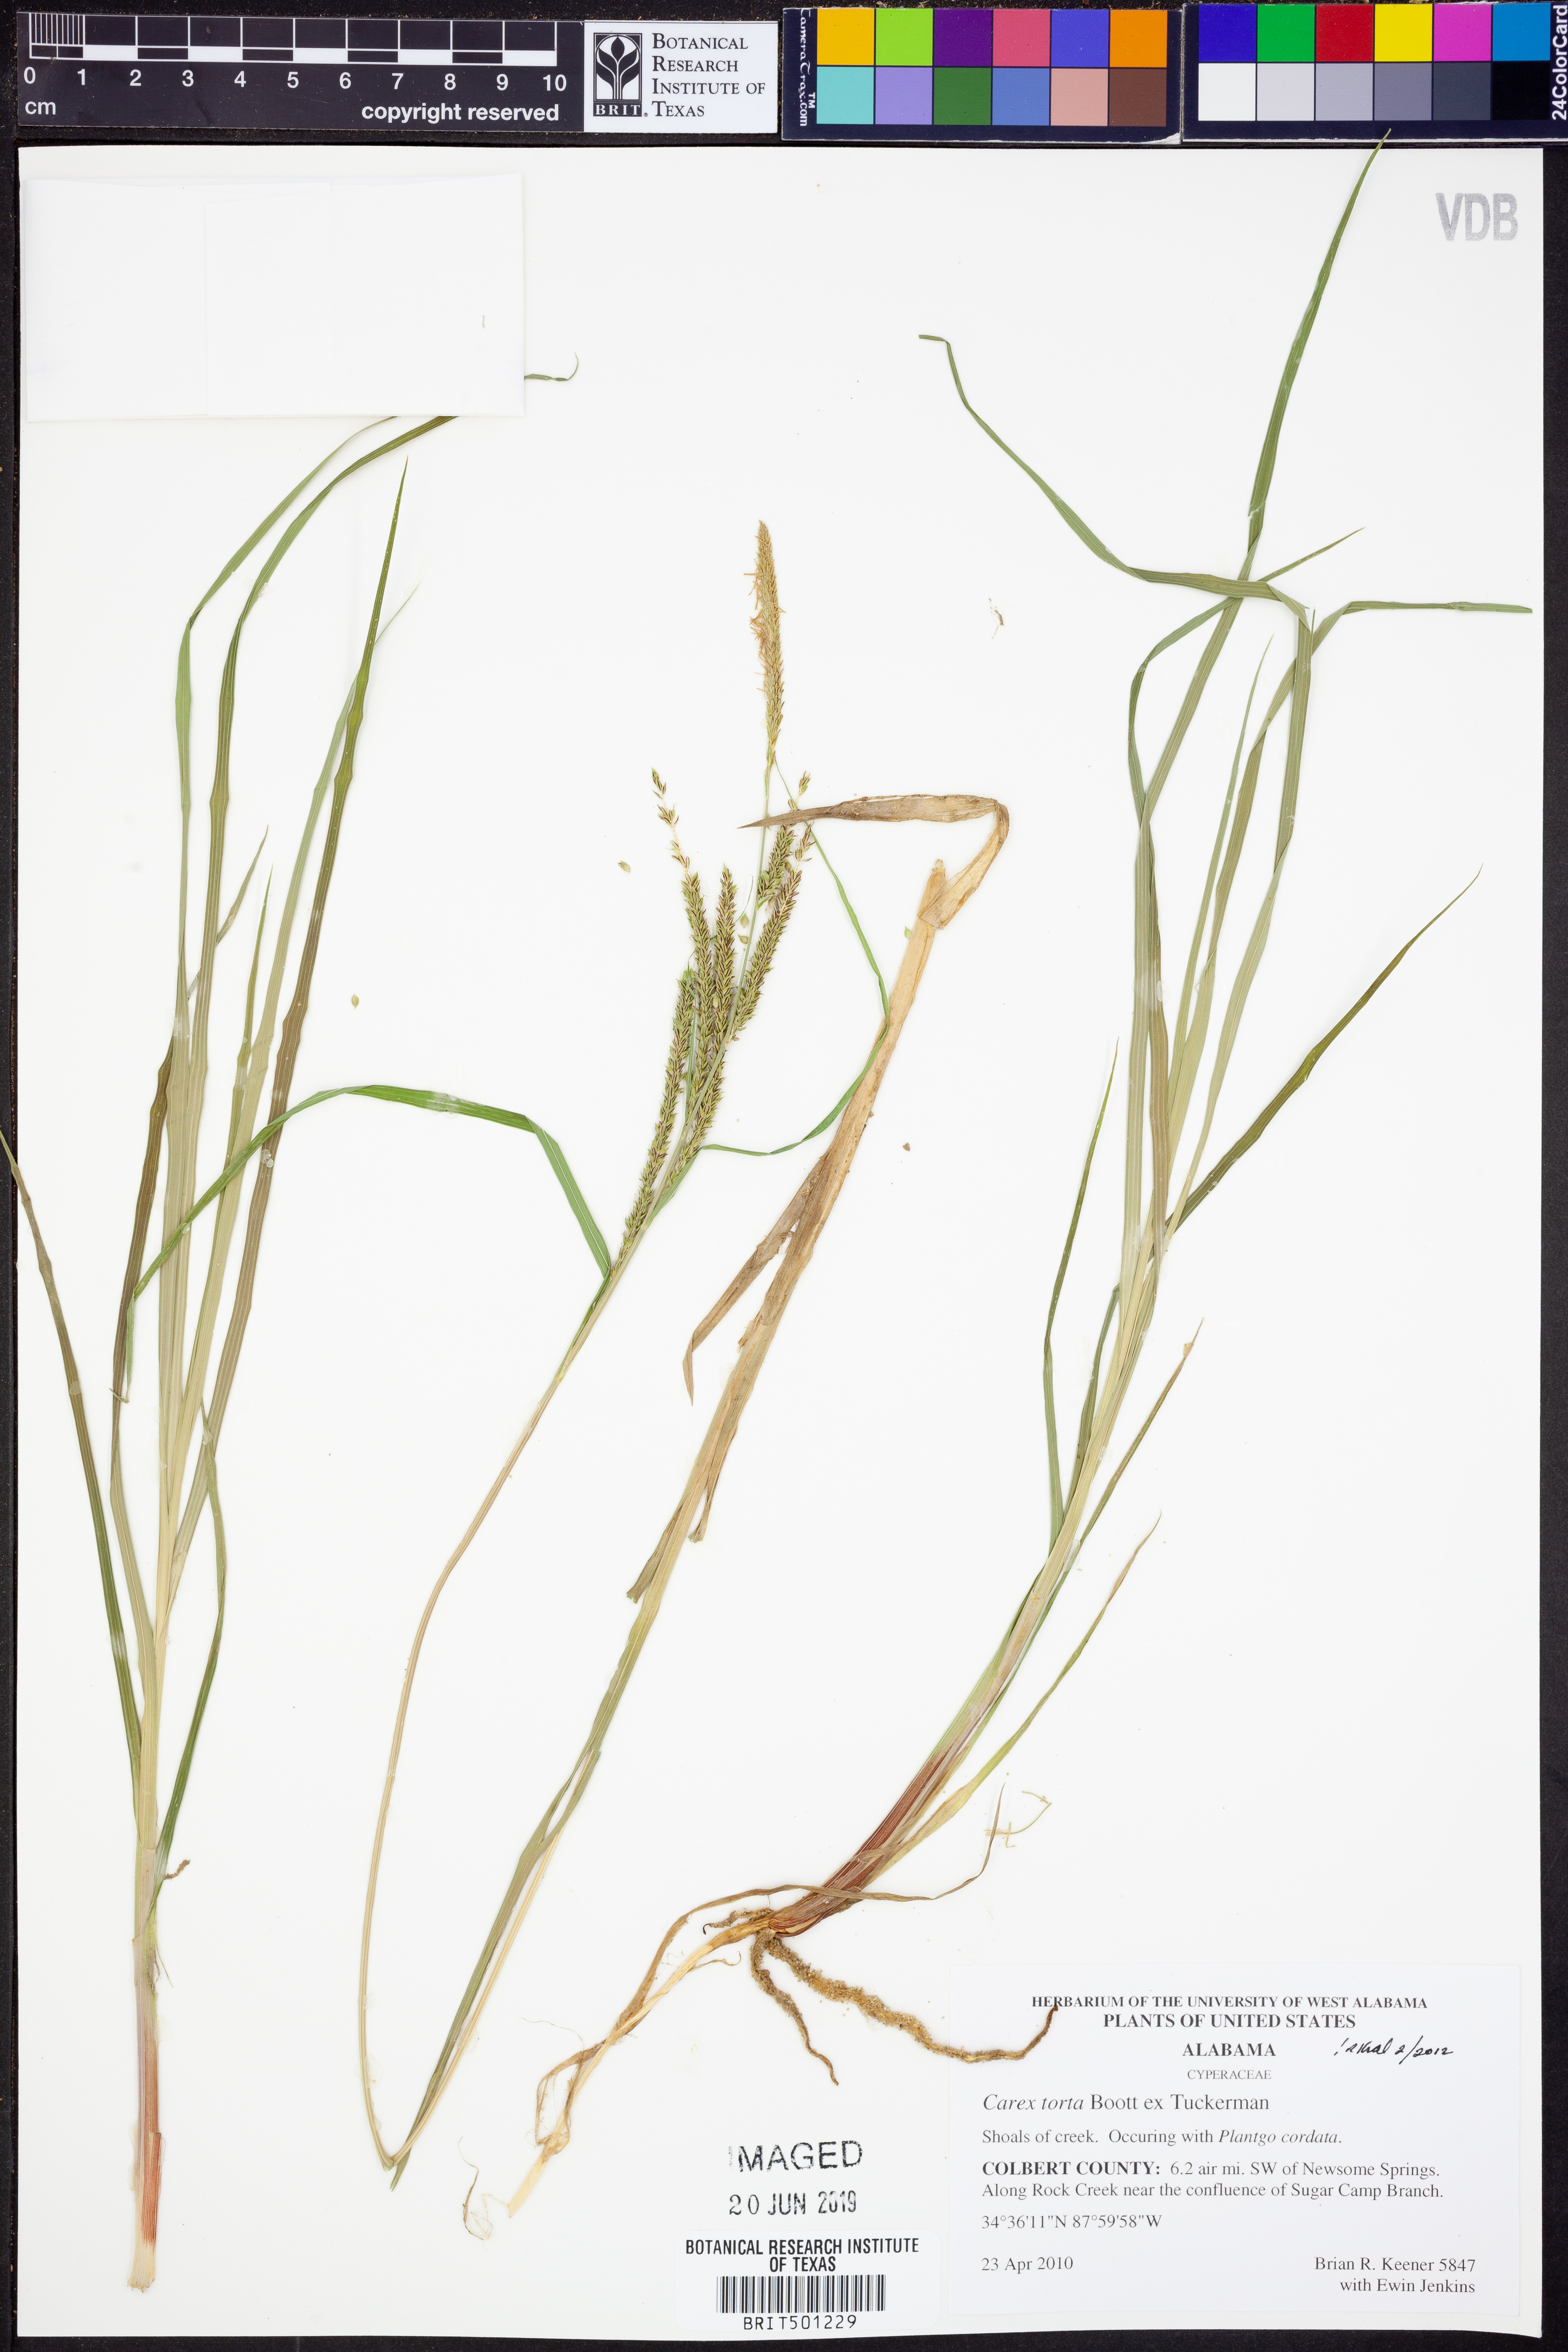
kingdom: Plantae
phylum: Tracheophyta
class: Liliopsida
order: Poales
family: Cyperaceae
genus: Carex
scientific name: Carex torta
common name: Twisted sedge
